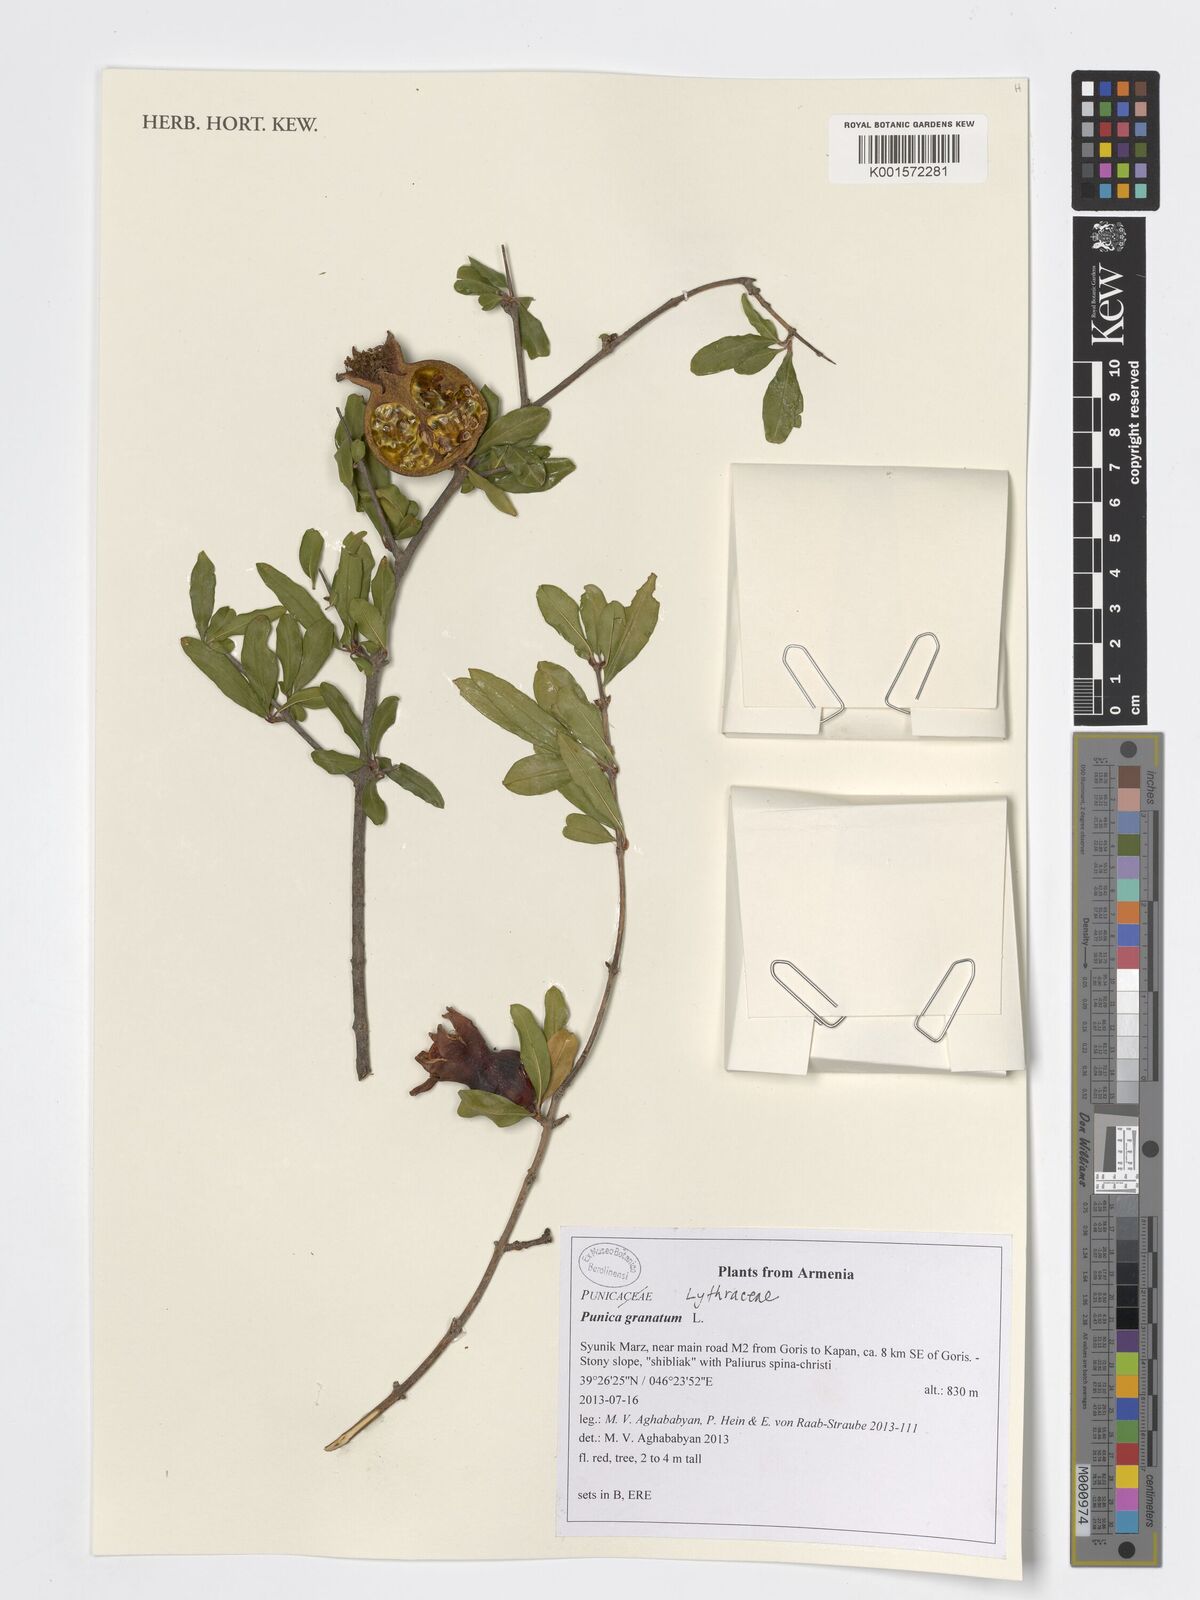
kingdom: Plantae
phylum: Tracheophyta
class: Magnoliopsida
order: Myrtales
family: Lythraceae
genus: Punica
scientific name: Punica granatum
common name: Pomegranate
